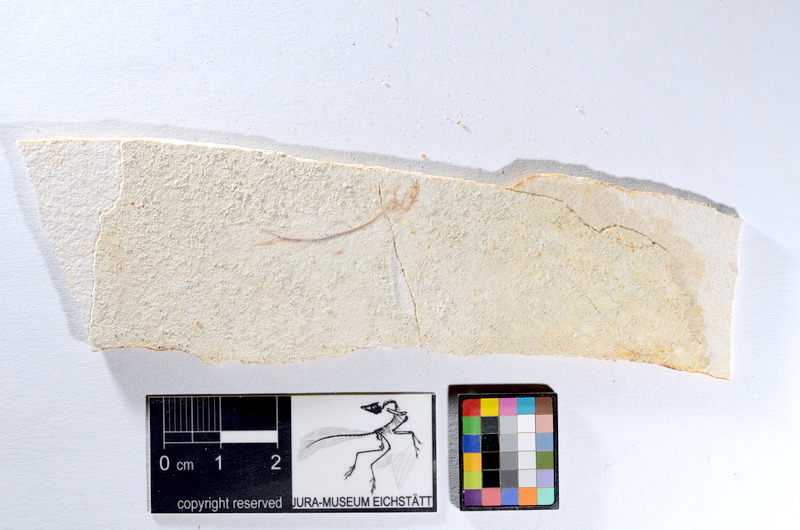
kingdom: Animalia
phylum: Chordata
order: Salmoniformes
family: Orthogonikleithridae
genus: Orthogonikleithrus
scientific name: Orthogonikleithrus hoelli
